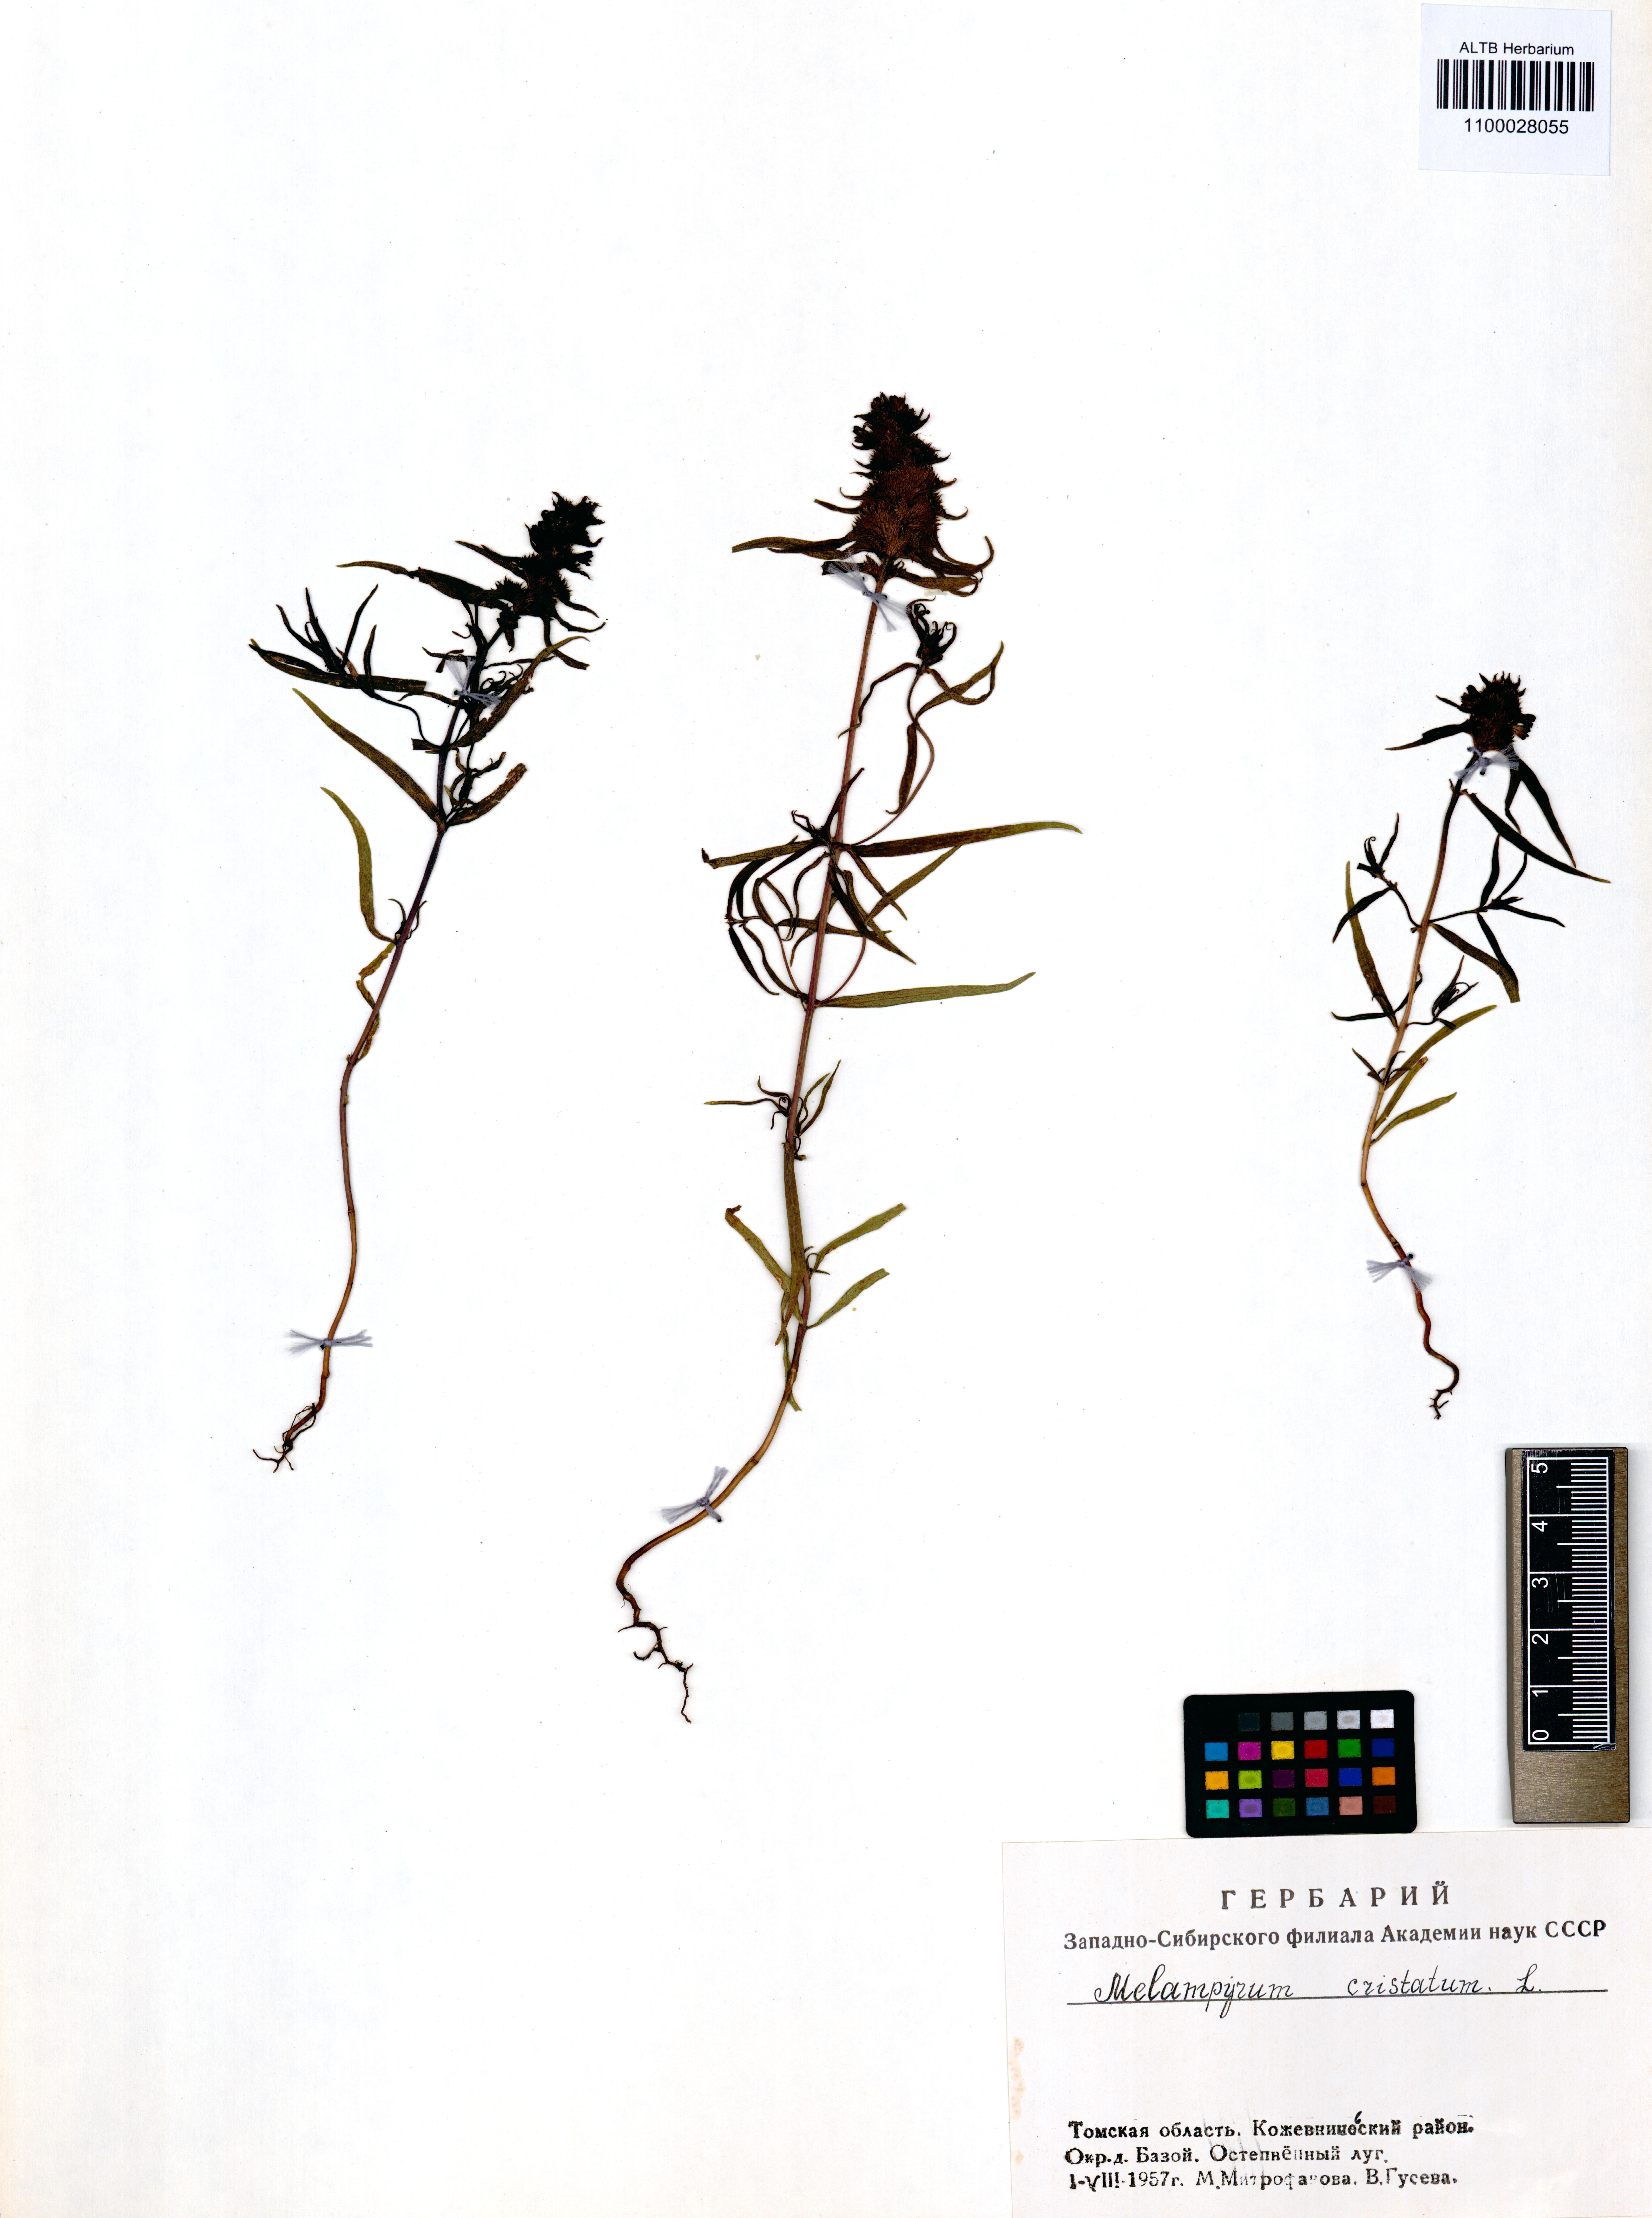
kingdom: Plantae
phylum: Tracheophyta
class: Magnoliopsida
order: Lamiales
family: Orobanchaceae
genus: Melampyrum
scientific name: Melampyrum cristatum
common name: Crested cow-wheat
